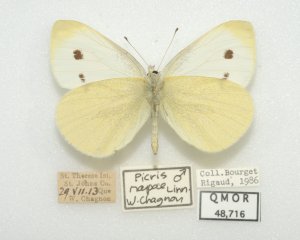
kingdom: Animalia
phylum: Arthropoda
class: Insecta
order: Lepidoptera
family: Pieridae
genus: Pieris
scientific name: Pieris rapae
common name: Cabbage White
